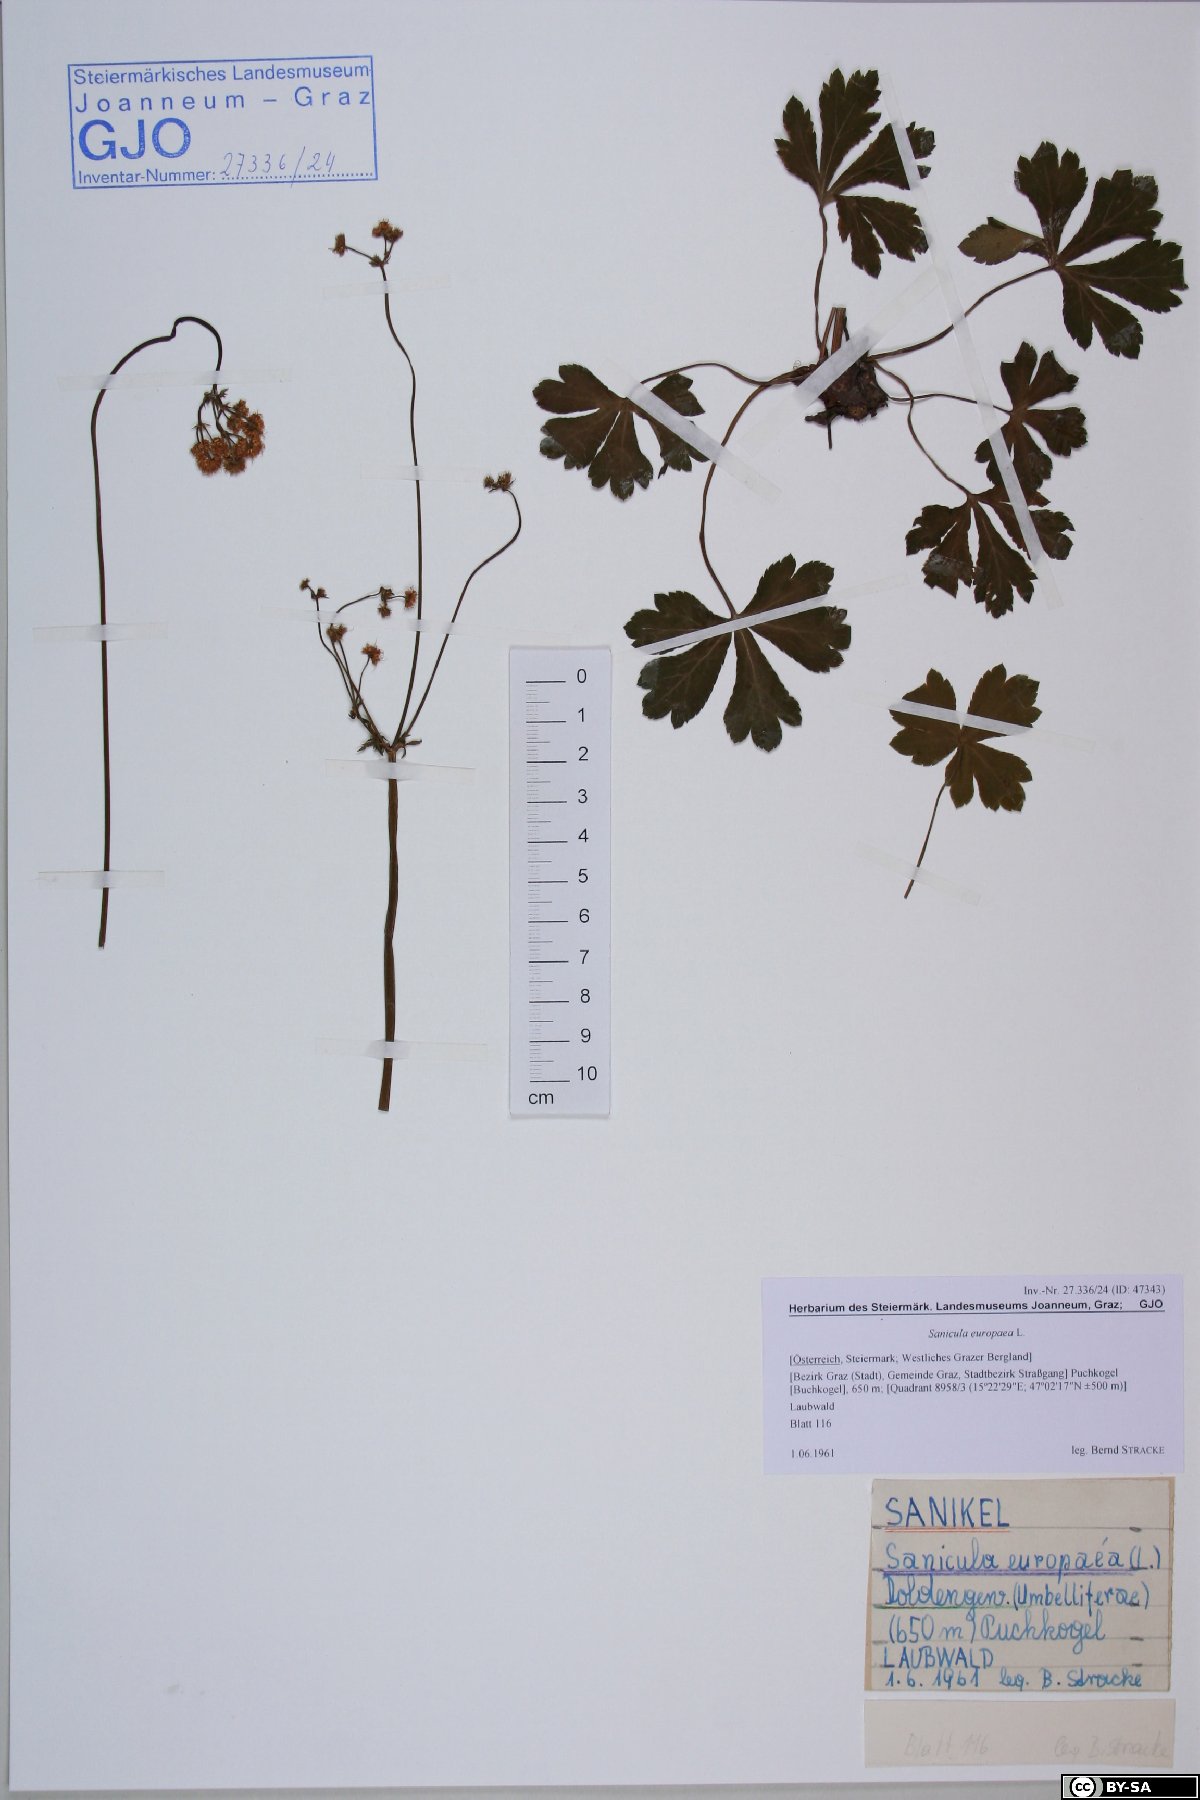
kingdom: Plantae
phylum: Tracheophyta
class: Magnoliopsida
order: Apiales
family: Apiaceae
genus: Sanicula
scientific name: Sanicula europaea
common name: Sanicle
